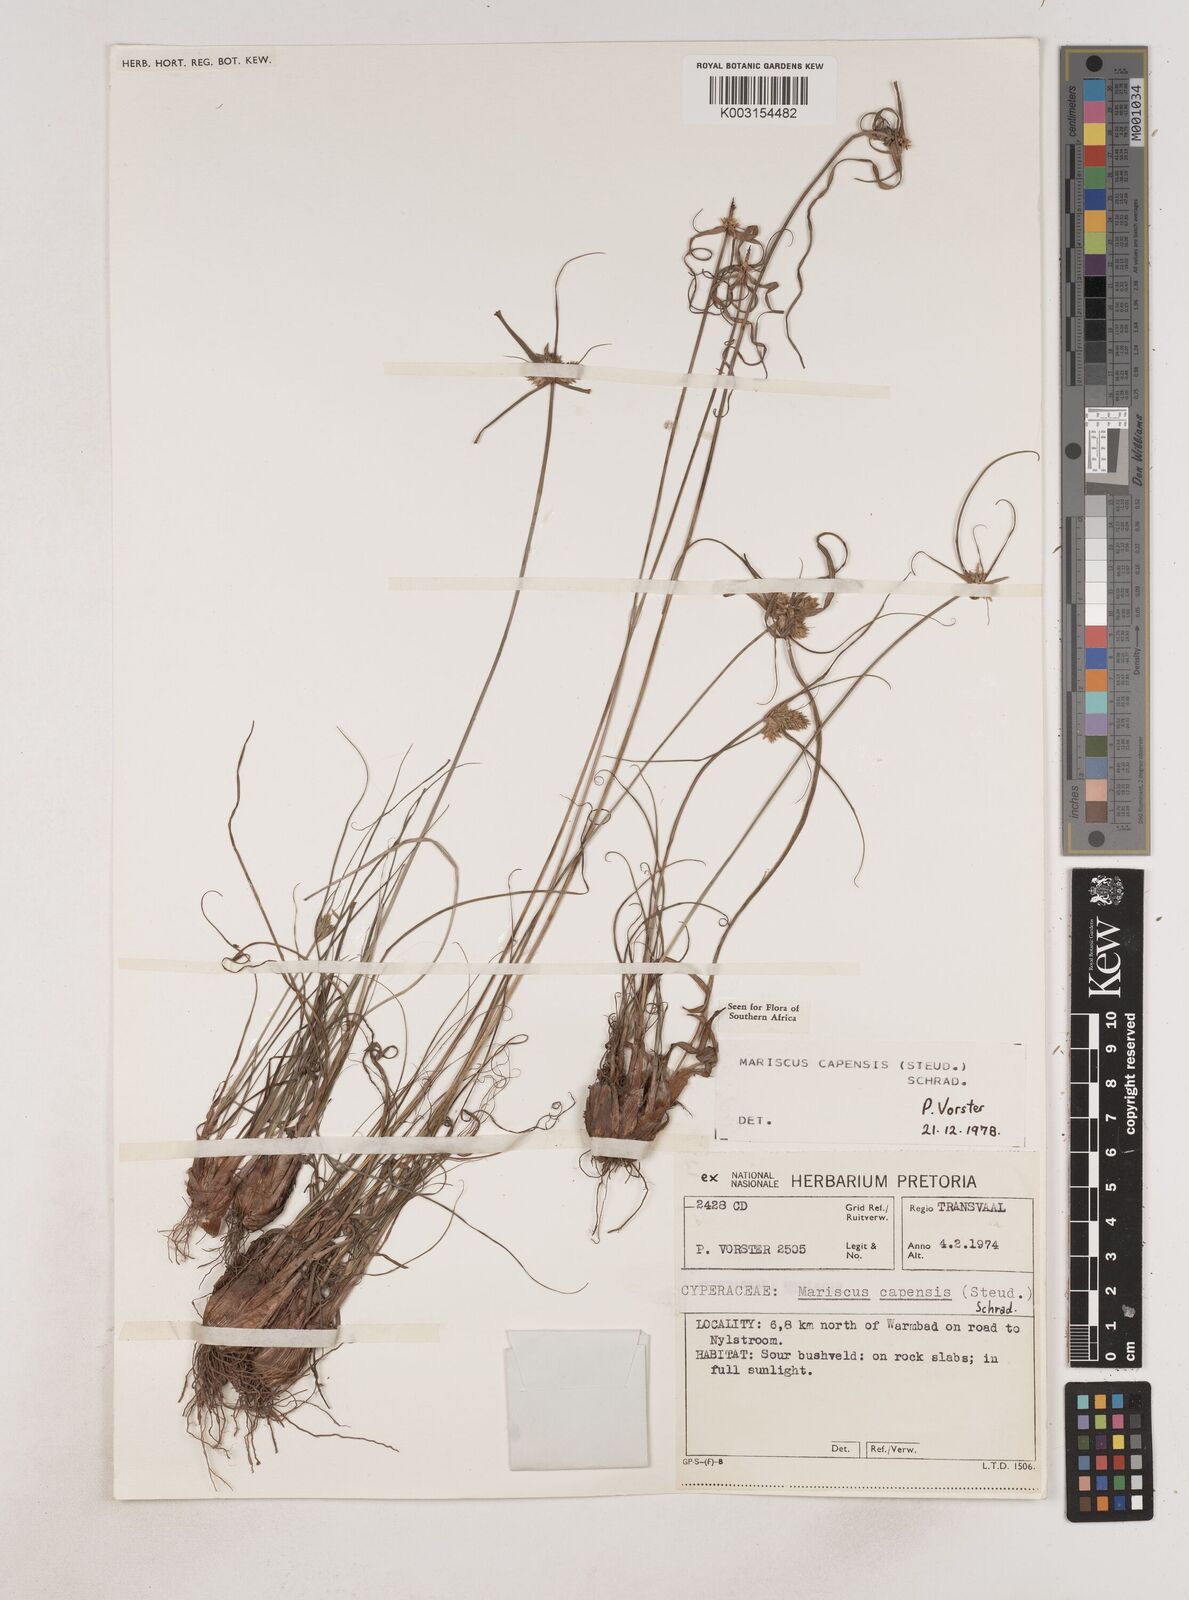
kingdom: Plantae
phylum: Tracheophyta
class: Liliopsida
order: Poales
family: Cyperaceae
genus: Cyperus
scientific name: Cyperus capensis
